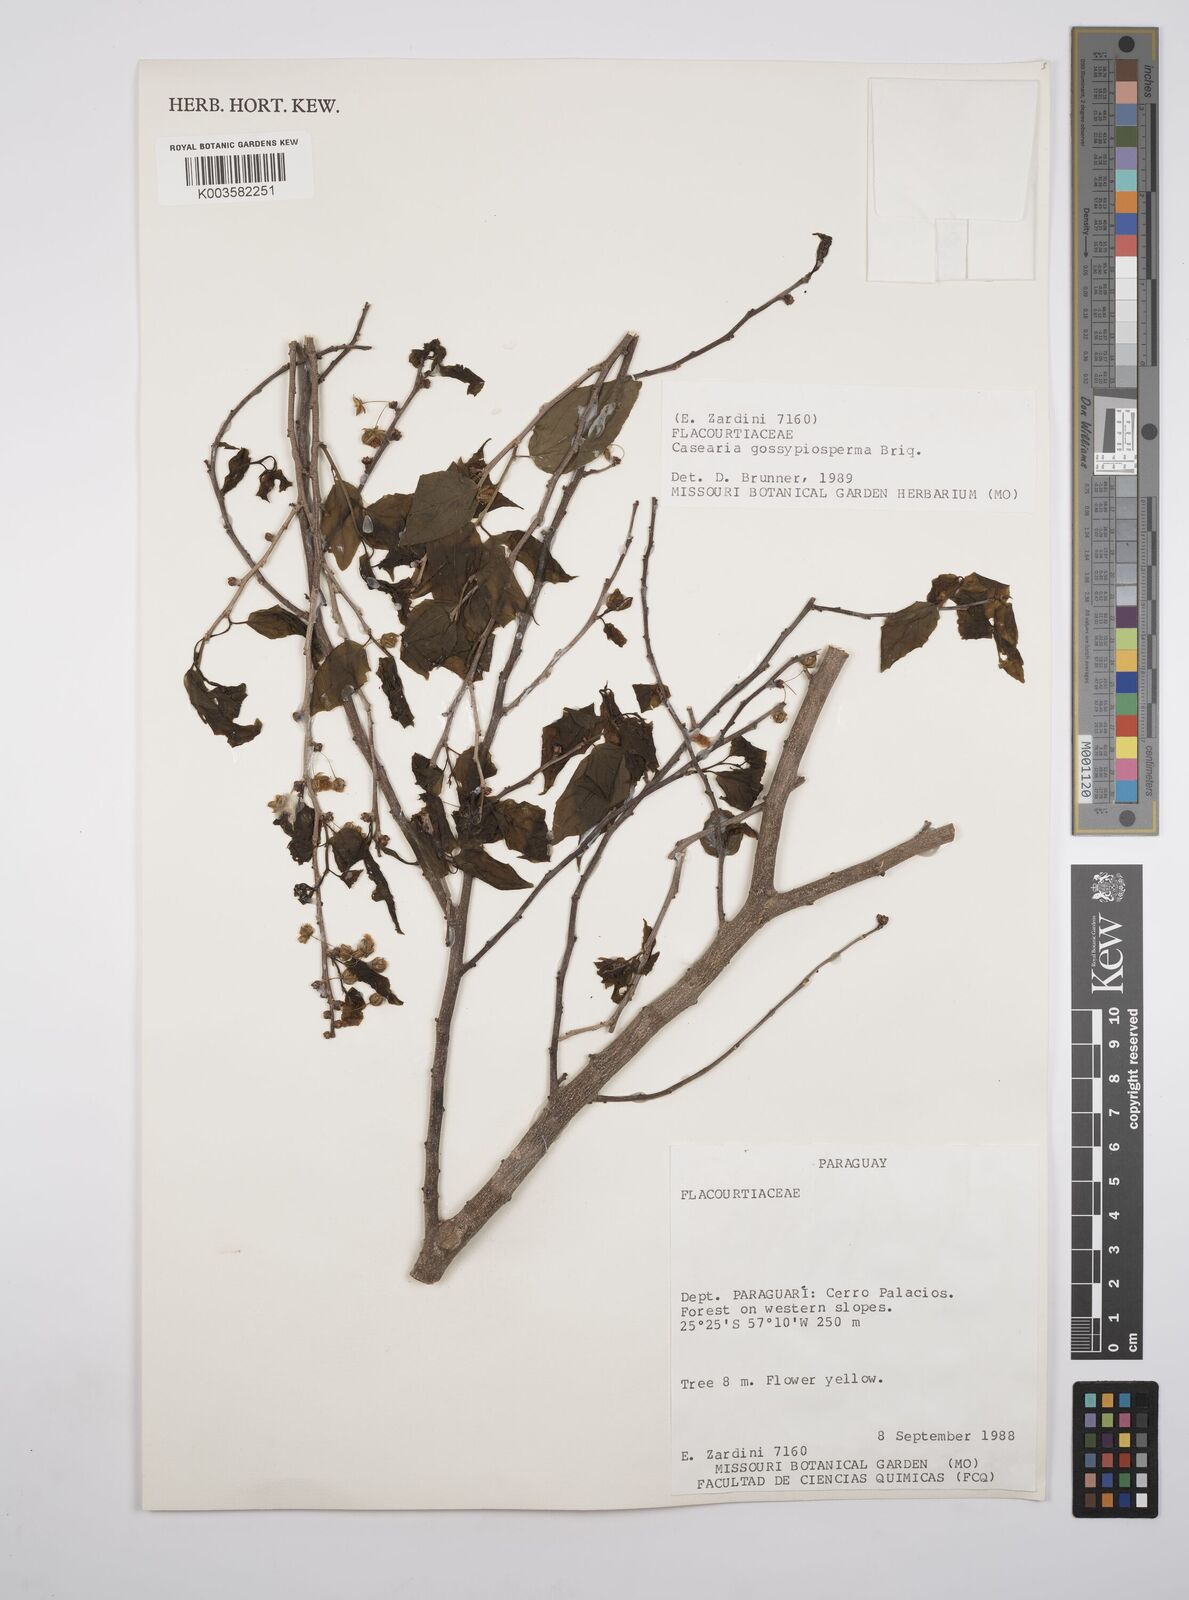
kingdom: Plantae
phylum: Tracheophyta
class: Magnoliopsida
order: Malpighiales
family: Salicaceae
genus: Casearia
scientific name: Casearia gossypiosperma
